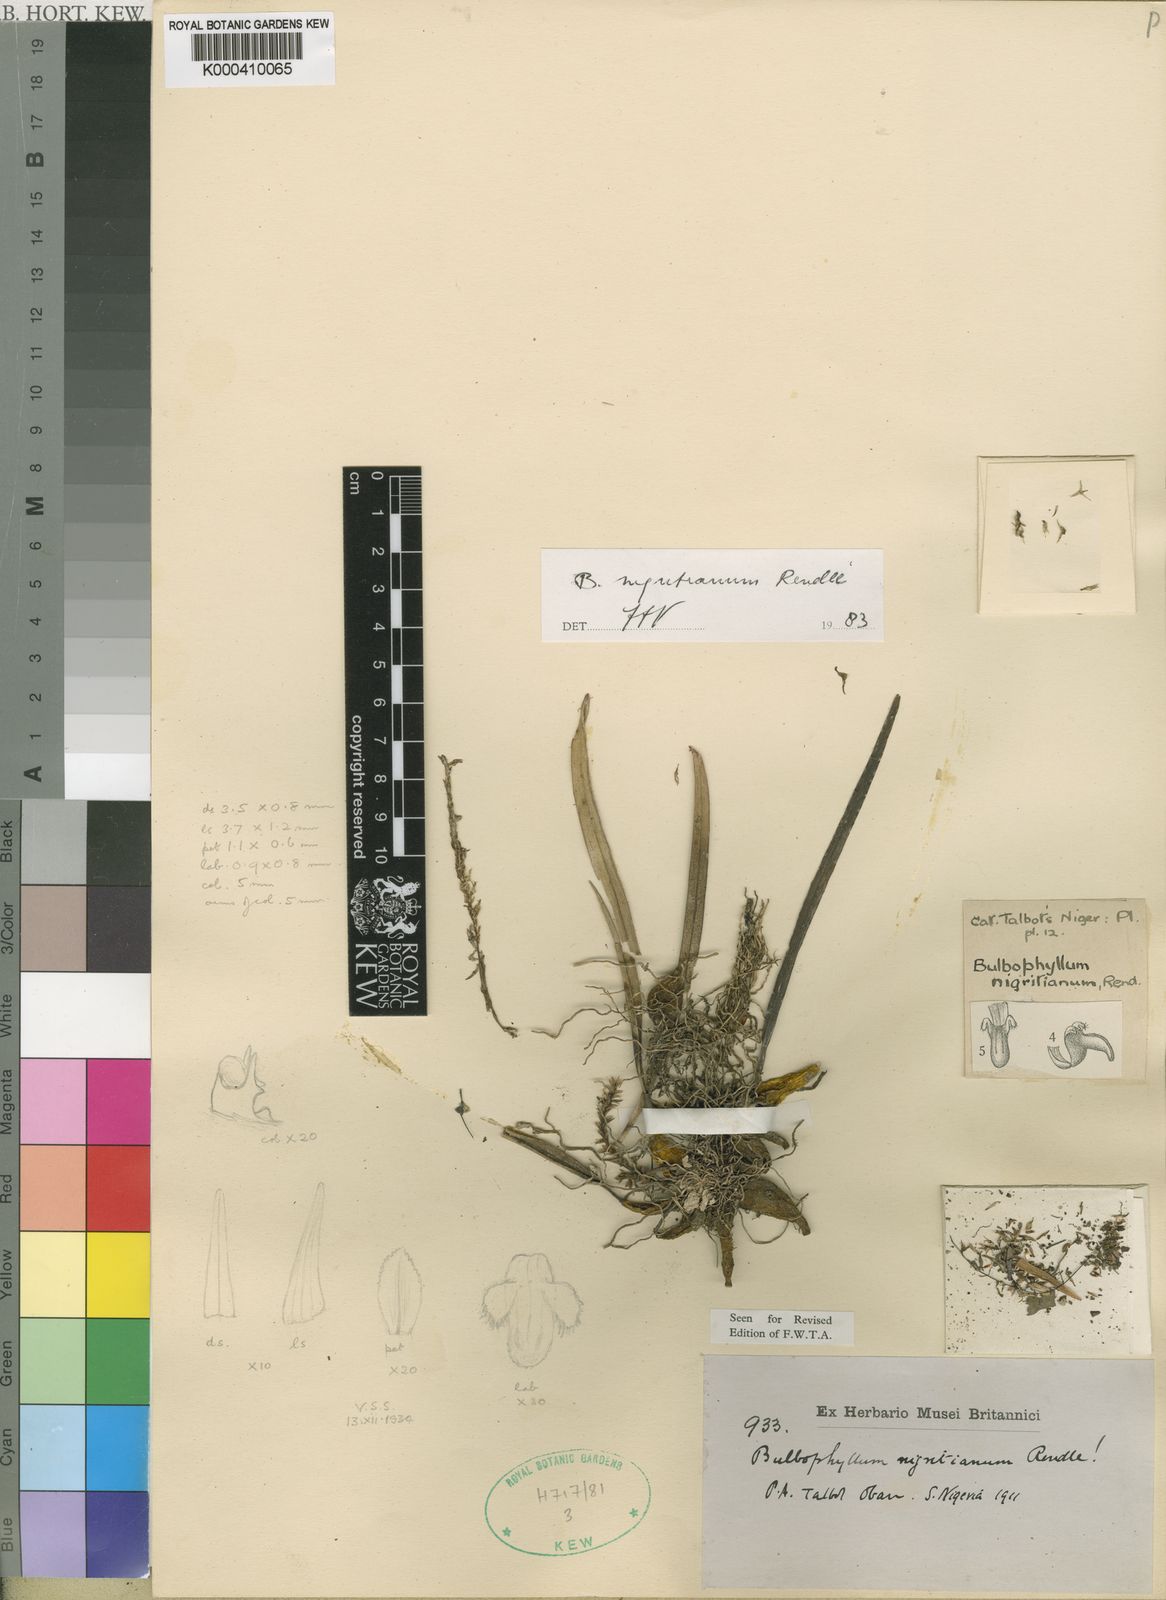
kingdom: Plantae
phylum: Tracheophyta
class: Liliopsida
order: Asparagales
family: Orchidaceae
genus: Bulbophyllum
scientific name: Bulbophyllum nigritianum
